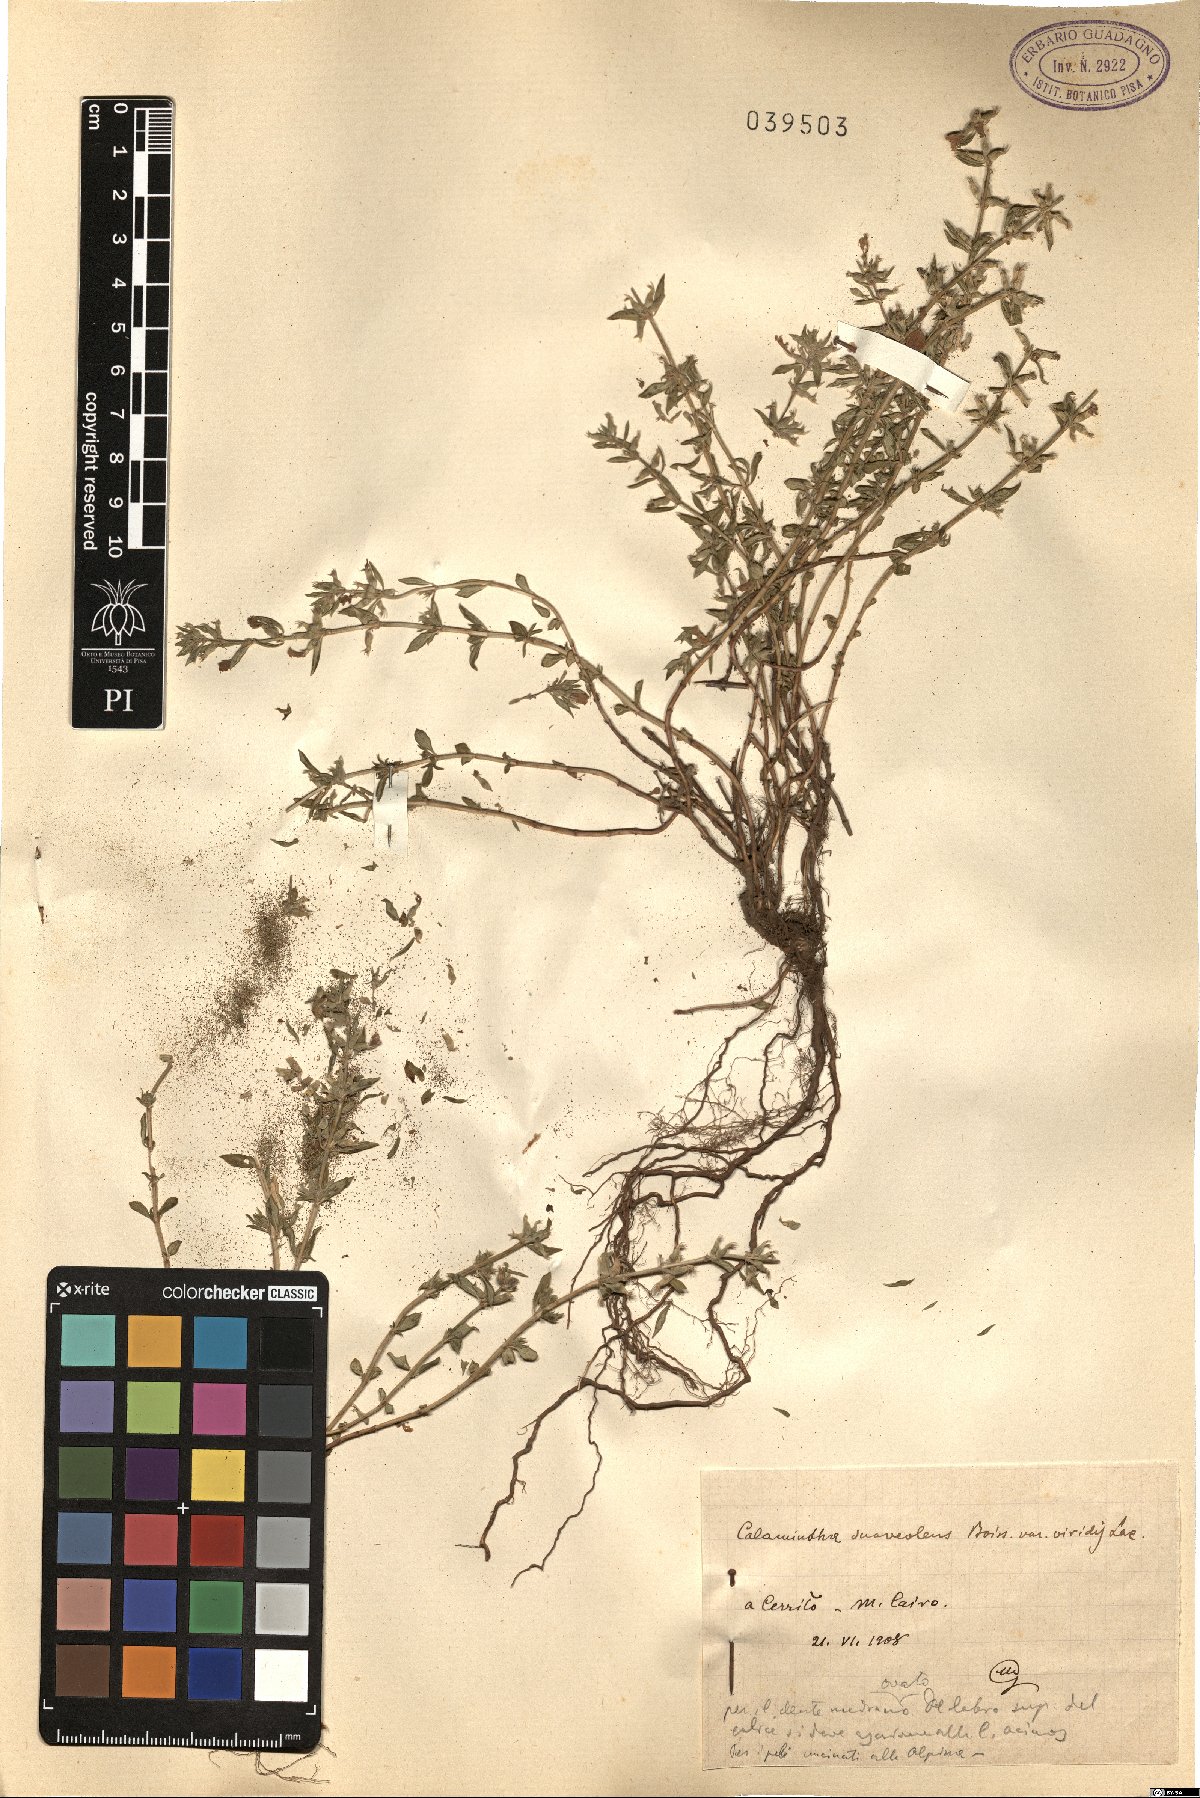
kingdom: Plantae
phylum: Tracheophyta
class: Magnoliopsida
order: Lamiales
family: Lamiaceae
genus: Clinopodium
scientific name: Clinopodium suaveolens
